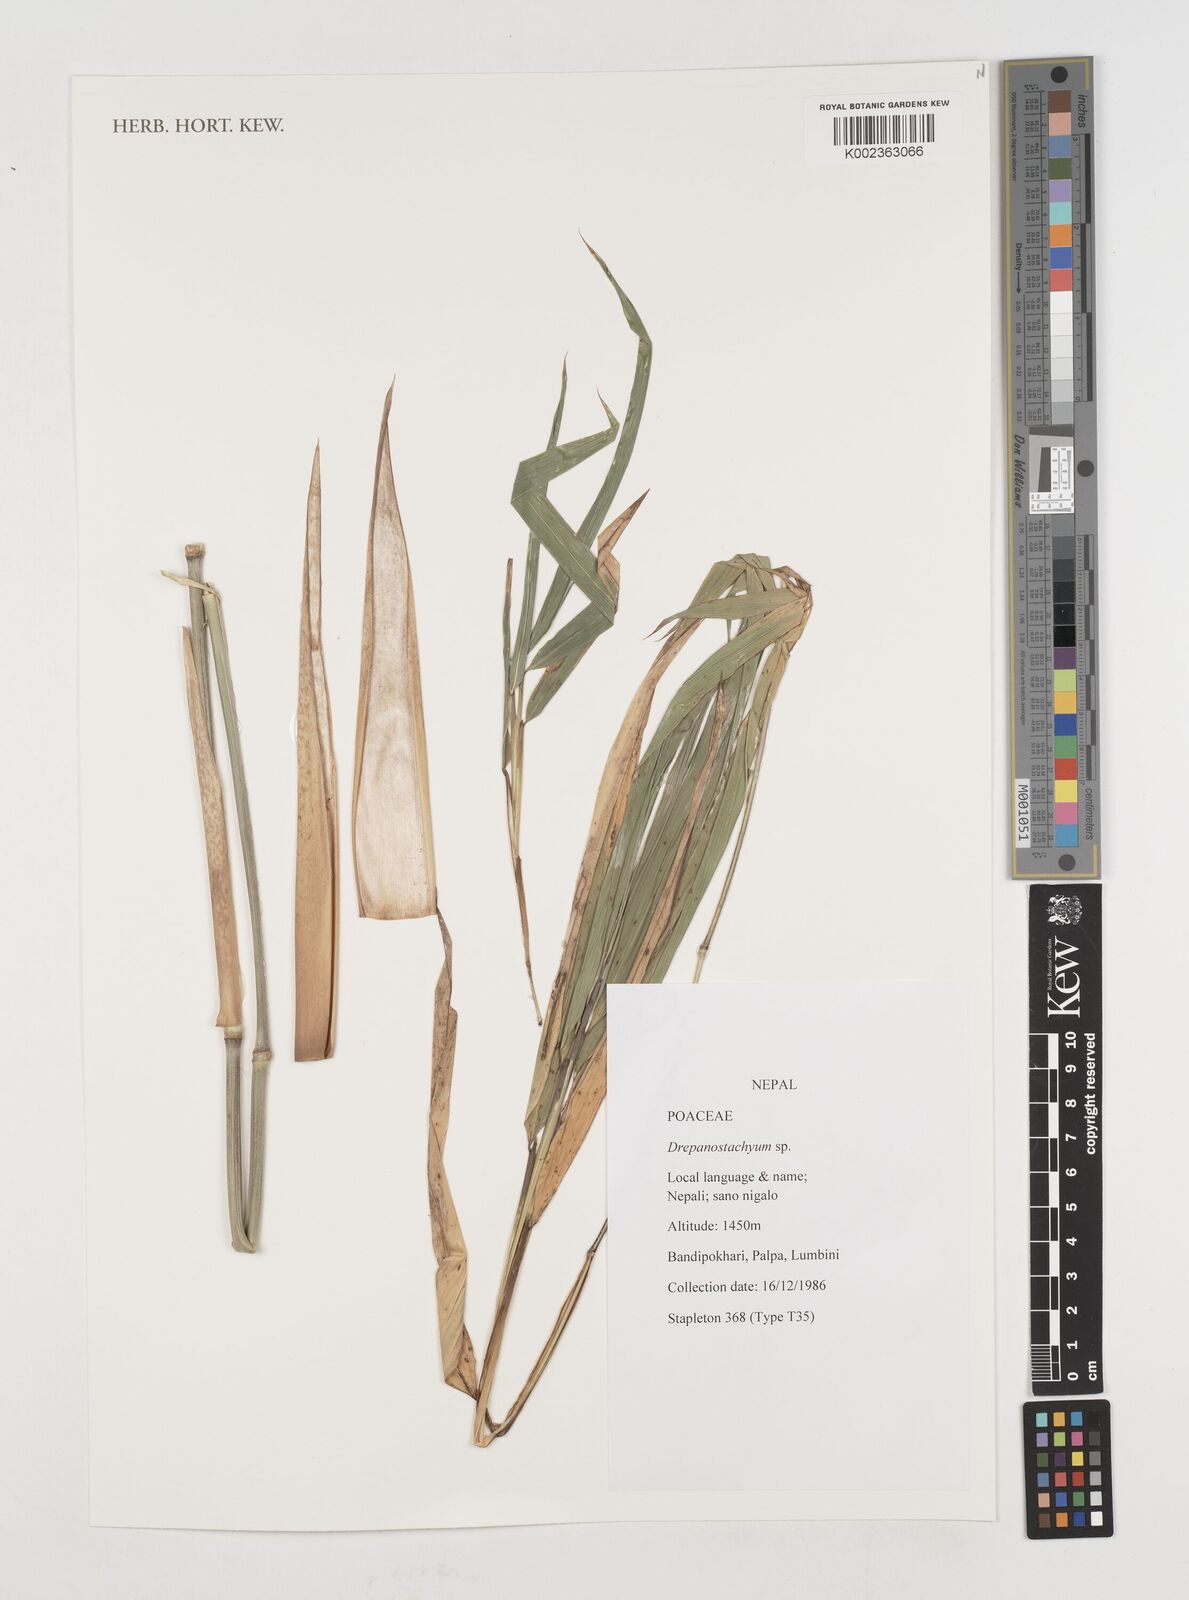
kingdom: Plantae
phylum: Tracheophyta
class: Liliopsida
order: Poales
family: Poaceae
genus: Drepanostachyum
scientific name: Drepanostachyum
